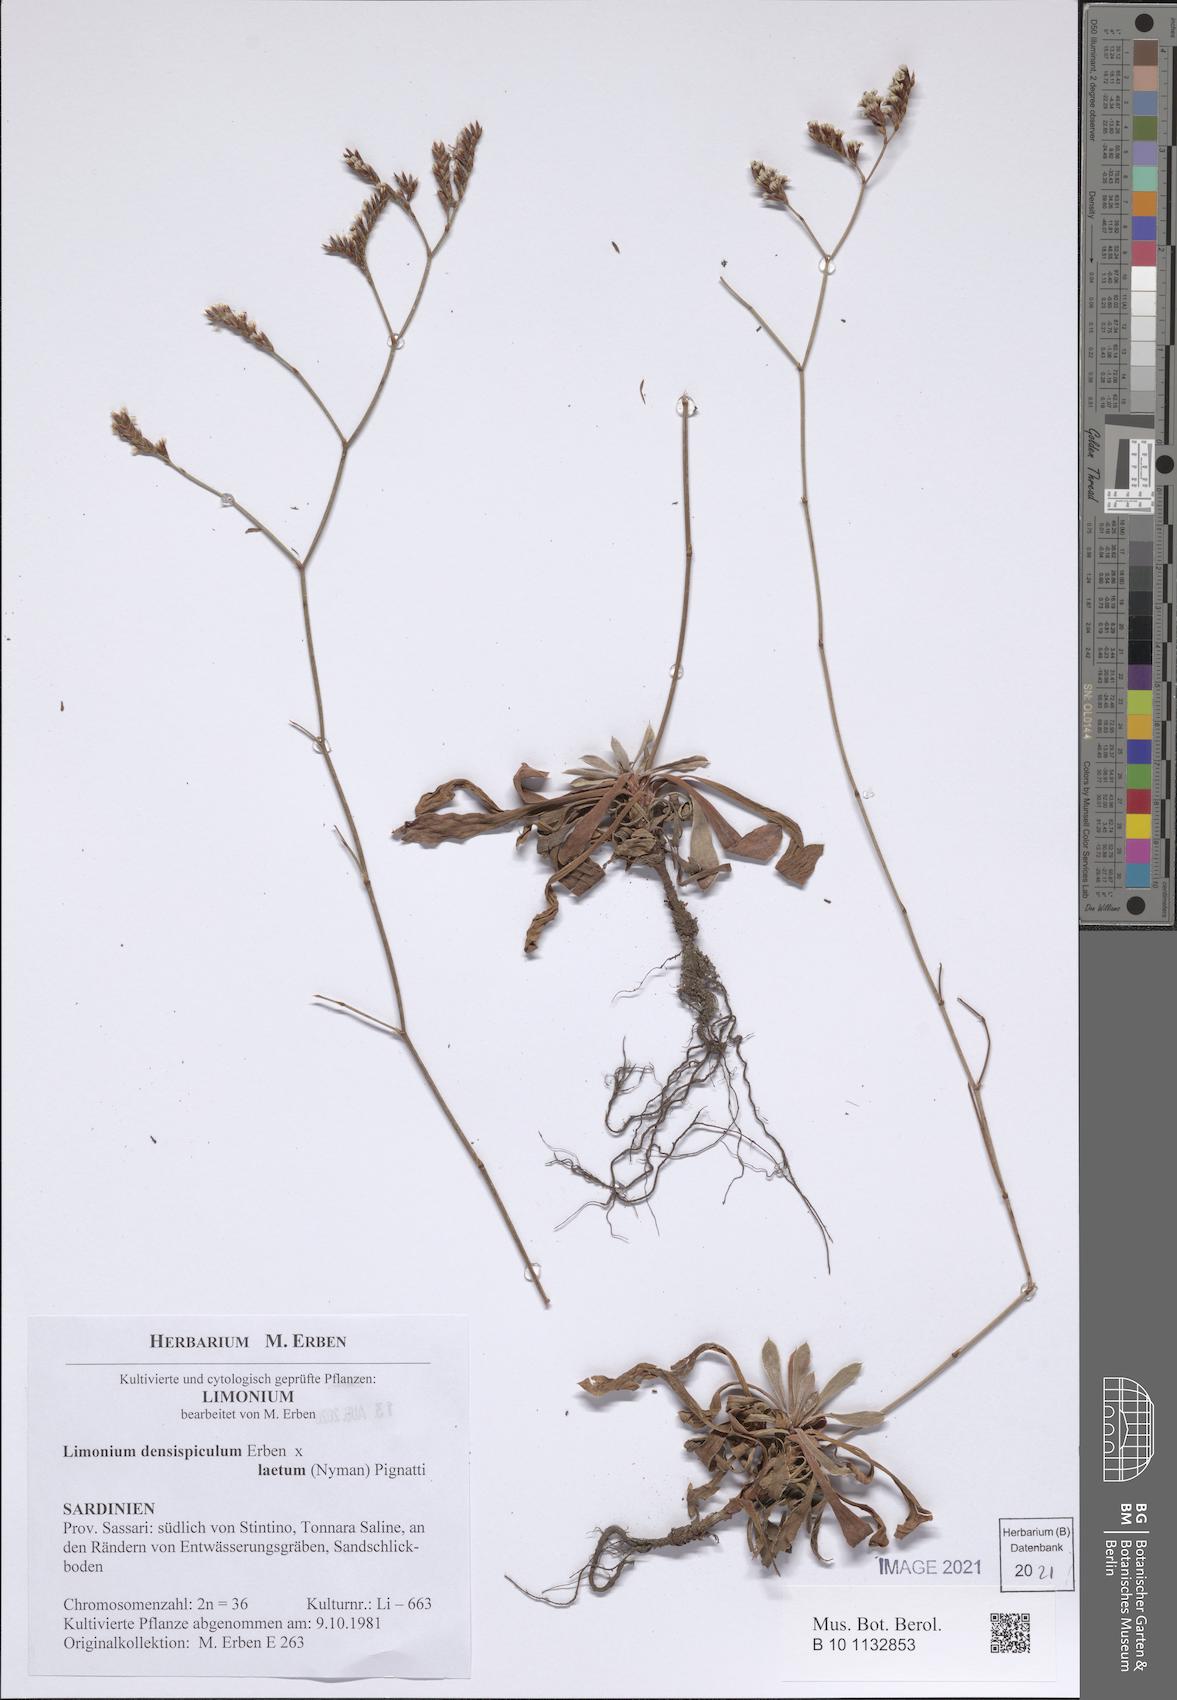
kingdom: Plantae
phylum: Tracheophyta
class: Magnoliopsida
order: Caryophyllales
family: Plumbaginaceae
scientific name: Plumbaginaceae
